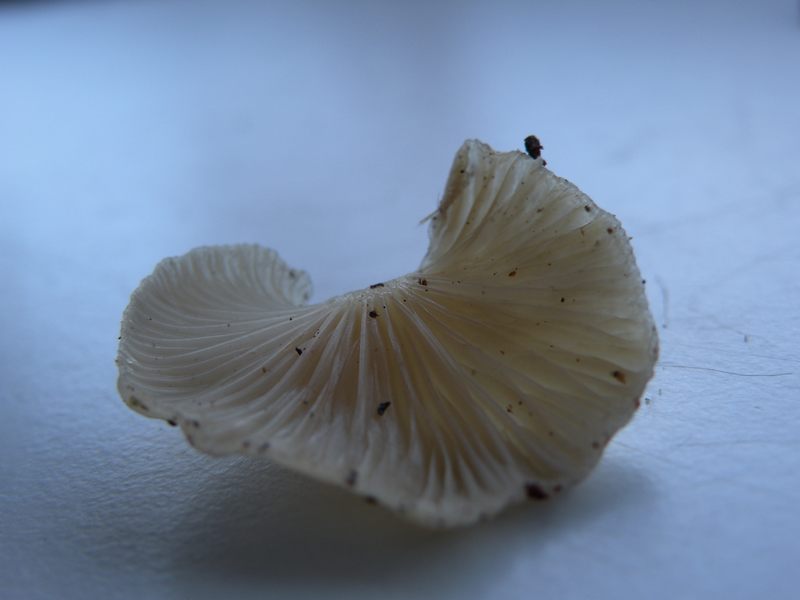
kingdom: Fungi
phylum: Basidiomycota
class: Agaricomycetes
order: Agaricales
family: Mycenaceae
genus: Panellus
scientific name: Panellus mitis
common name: mild epaulethat
